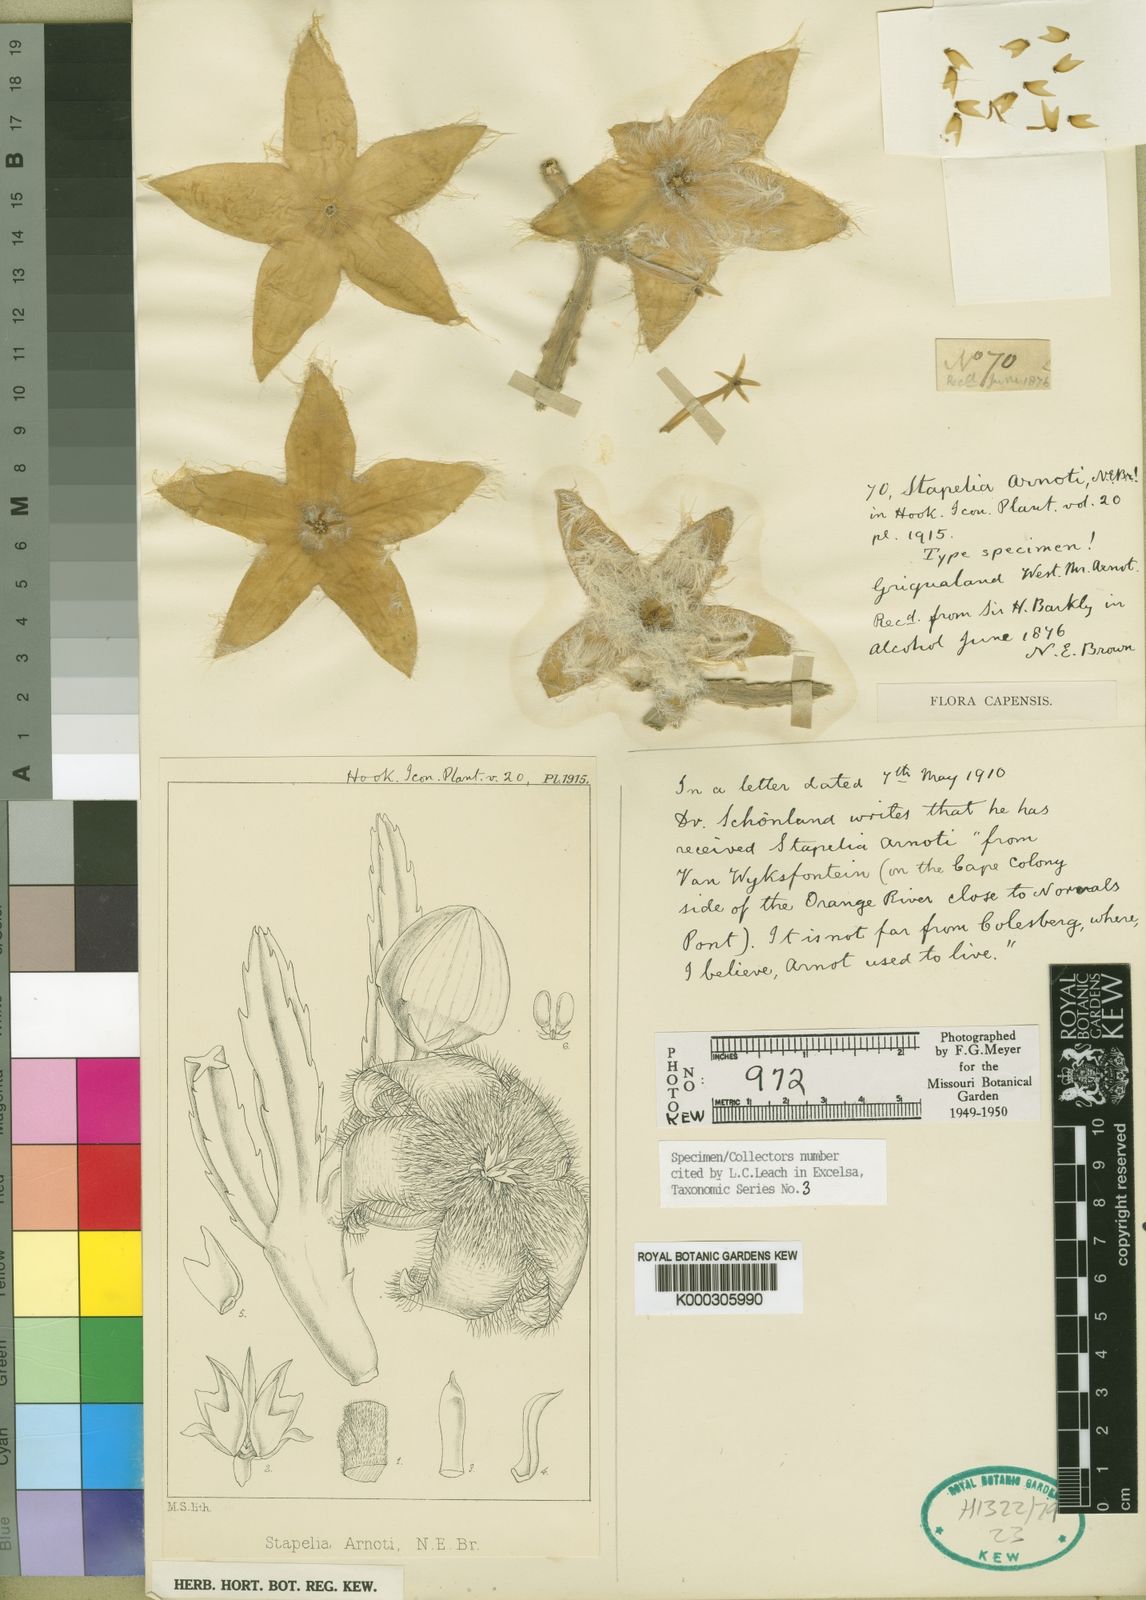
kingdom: Plantae
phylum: Tracheophyta
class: Magnoliopsida
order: Gentianales
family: Apocynaceae
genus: Ceropegia
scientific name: Ceropegia grandiflora
